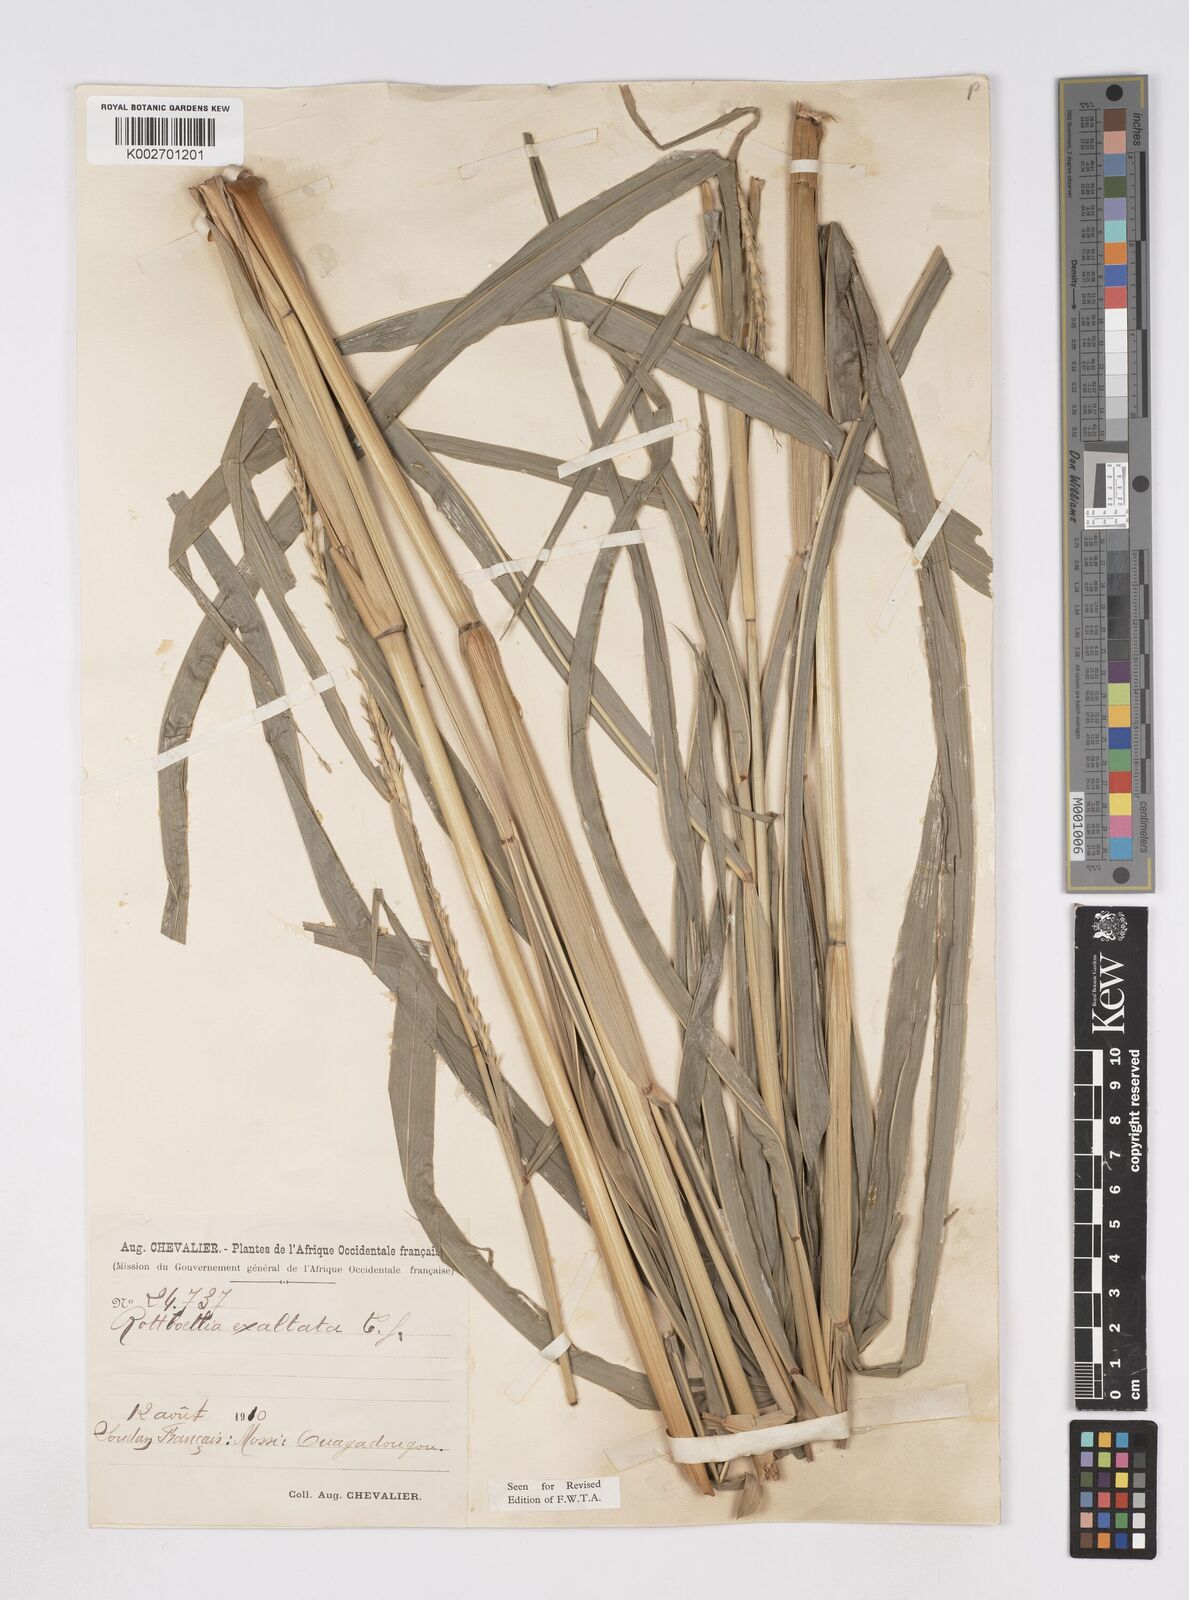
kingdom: Plantae
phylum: Tracheophyta
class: Liliopsida
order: Poales
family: Poaceae
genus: Ophiuros
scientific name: Ophiuros exaltatus
